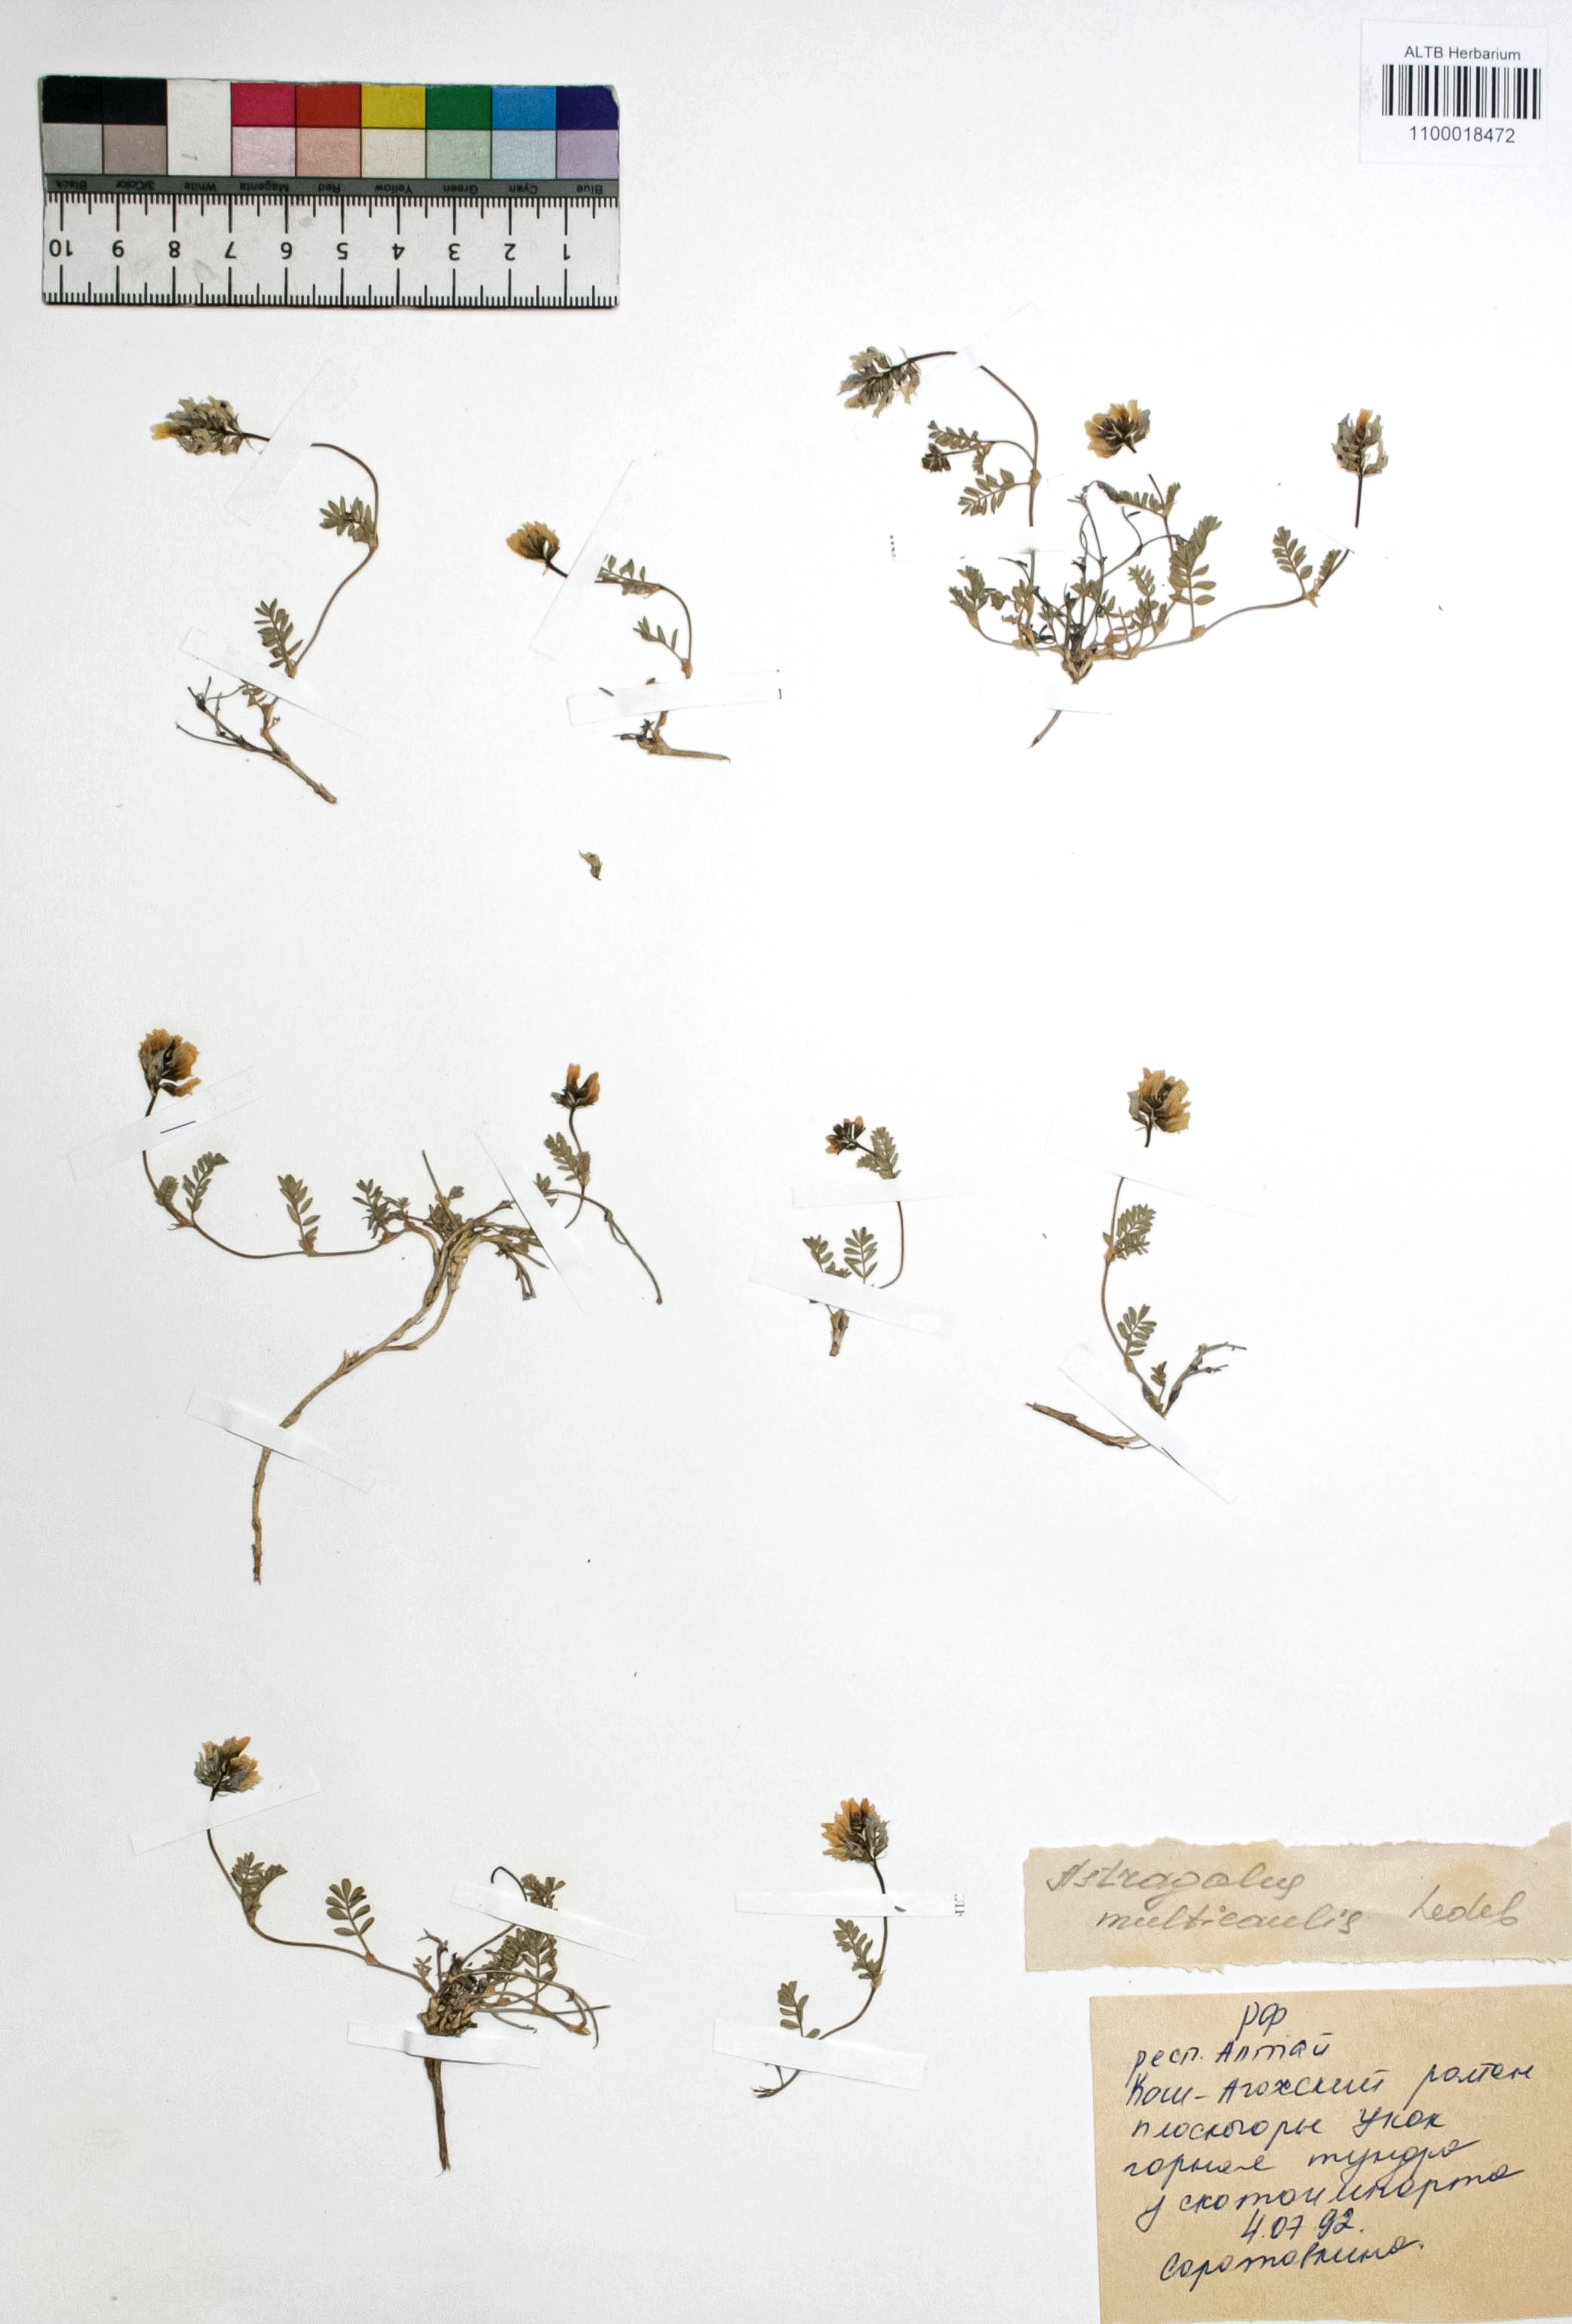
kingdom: Plantae
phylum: Tracheophyta
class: Magnoliopsida
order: Fabales
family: Fabaceae
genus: Astragalus
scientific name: Astragalus leptostachys
